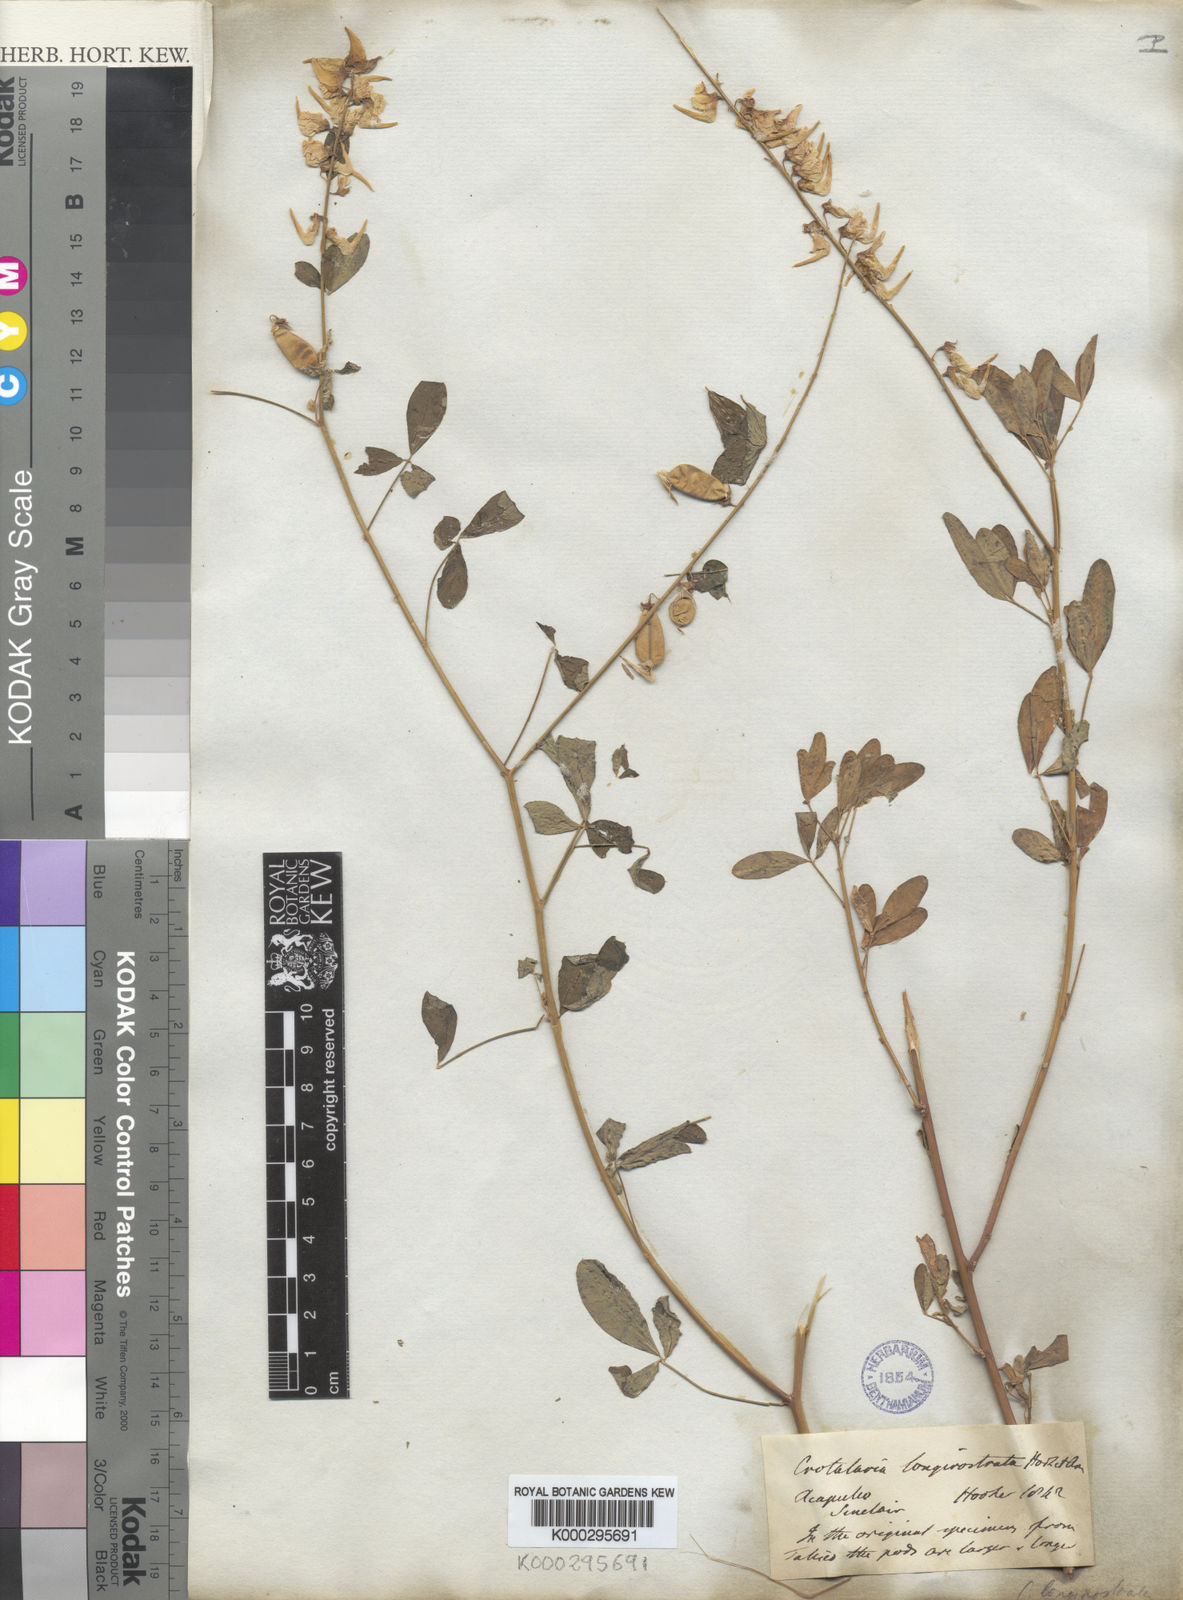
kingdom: Plantae
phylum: Tracheophyta
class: Magnoliopsida
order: Fabales
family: Fabaceae
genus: Crotalaria
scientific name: Crotalaria longirostrata
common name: Longbeak rattlebox
